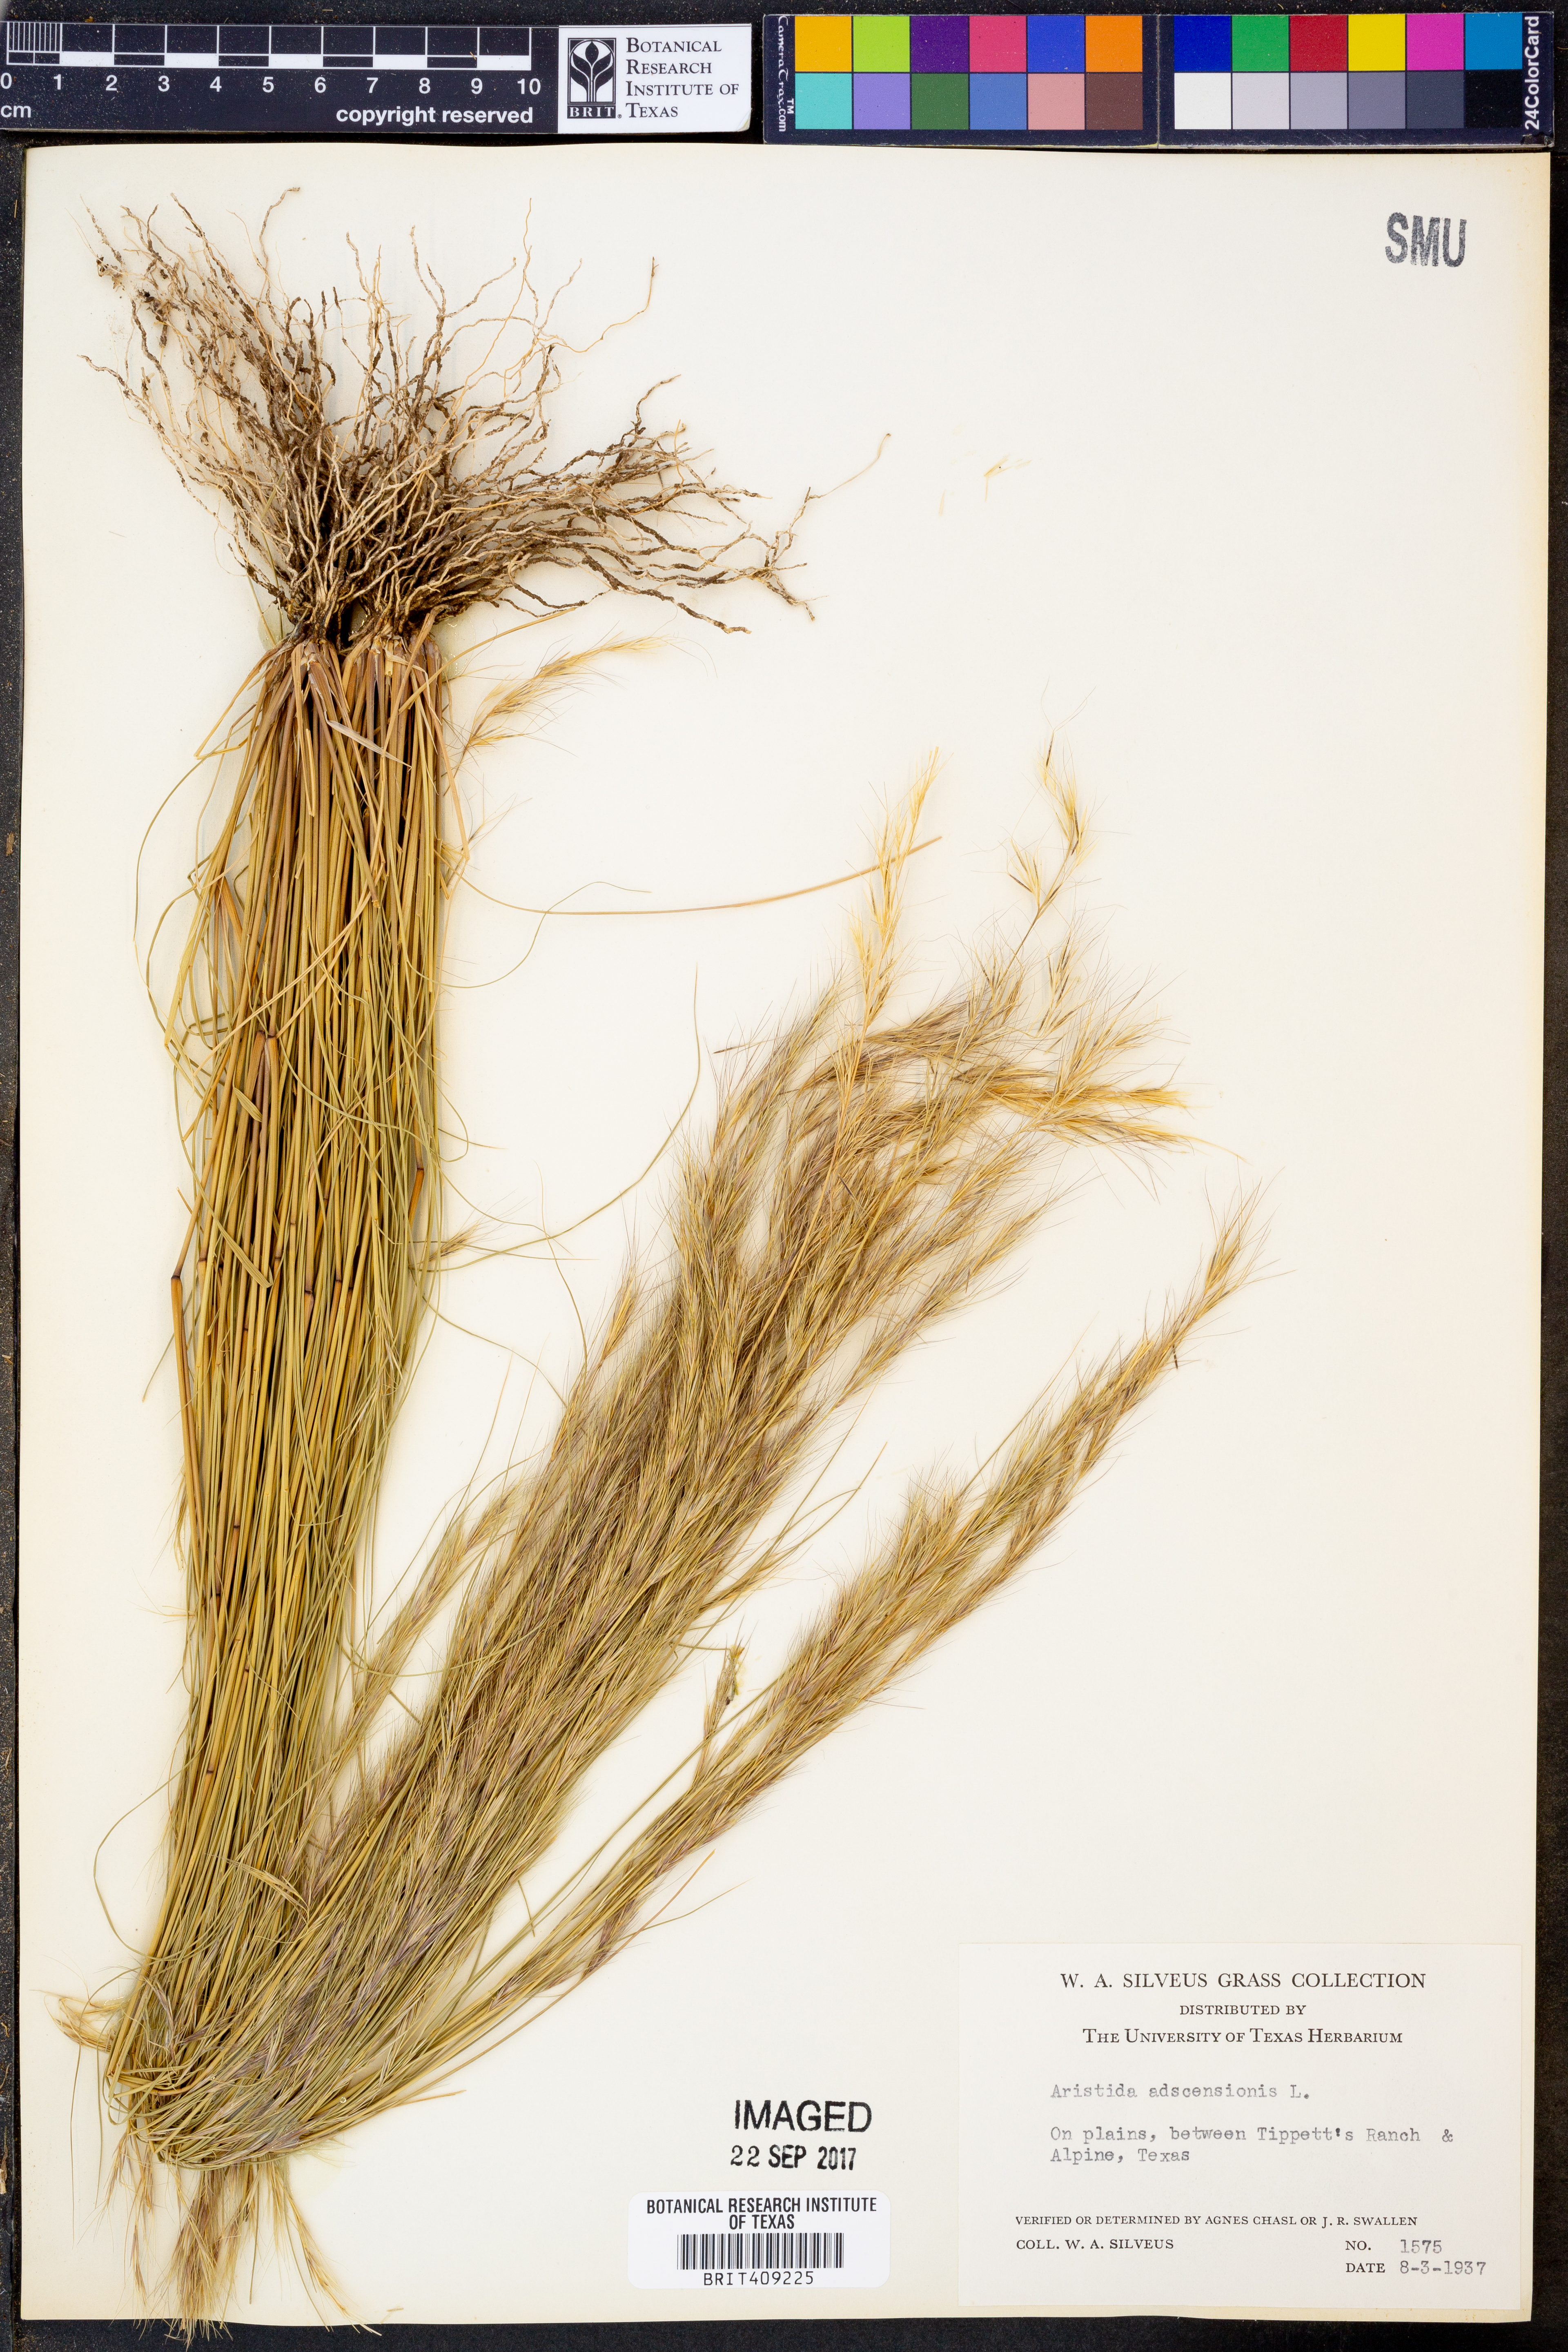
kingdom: Plantae
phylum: Tracheophyta
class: Liliopsida
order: Poales
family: Poaceae
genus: Aristida
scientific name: Aristida adscensionis
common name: Sixweeks threeawn
